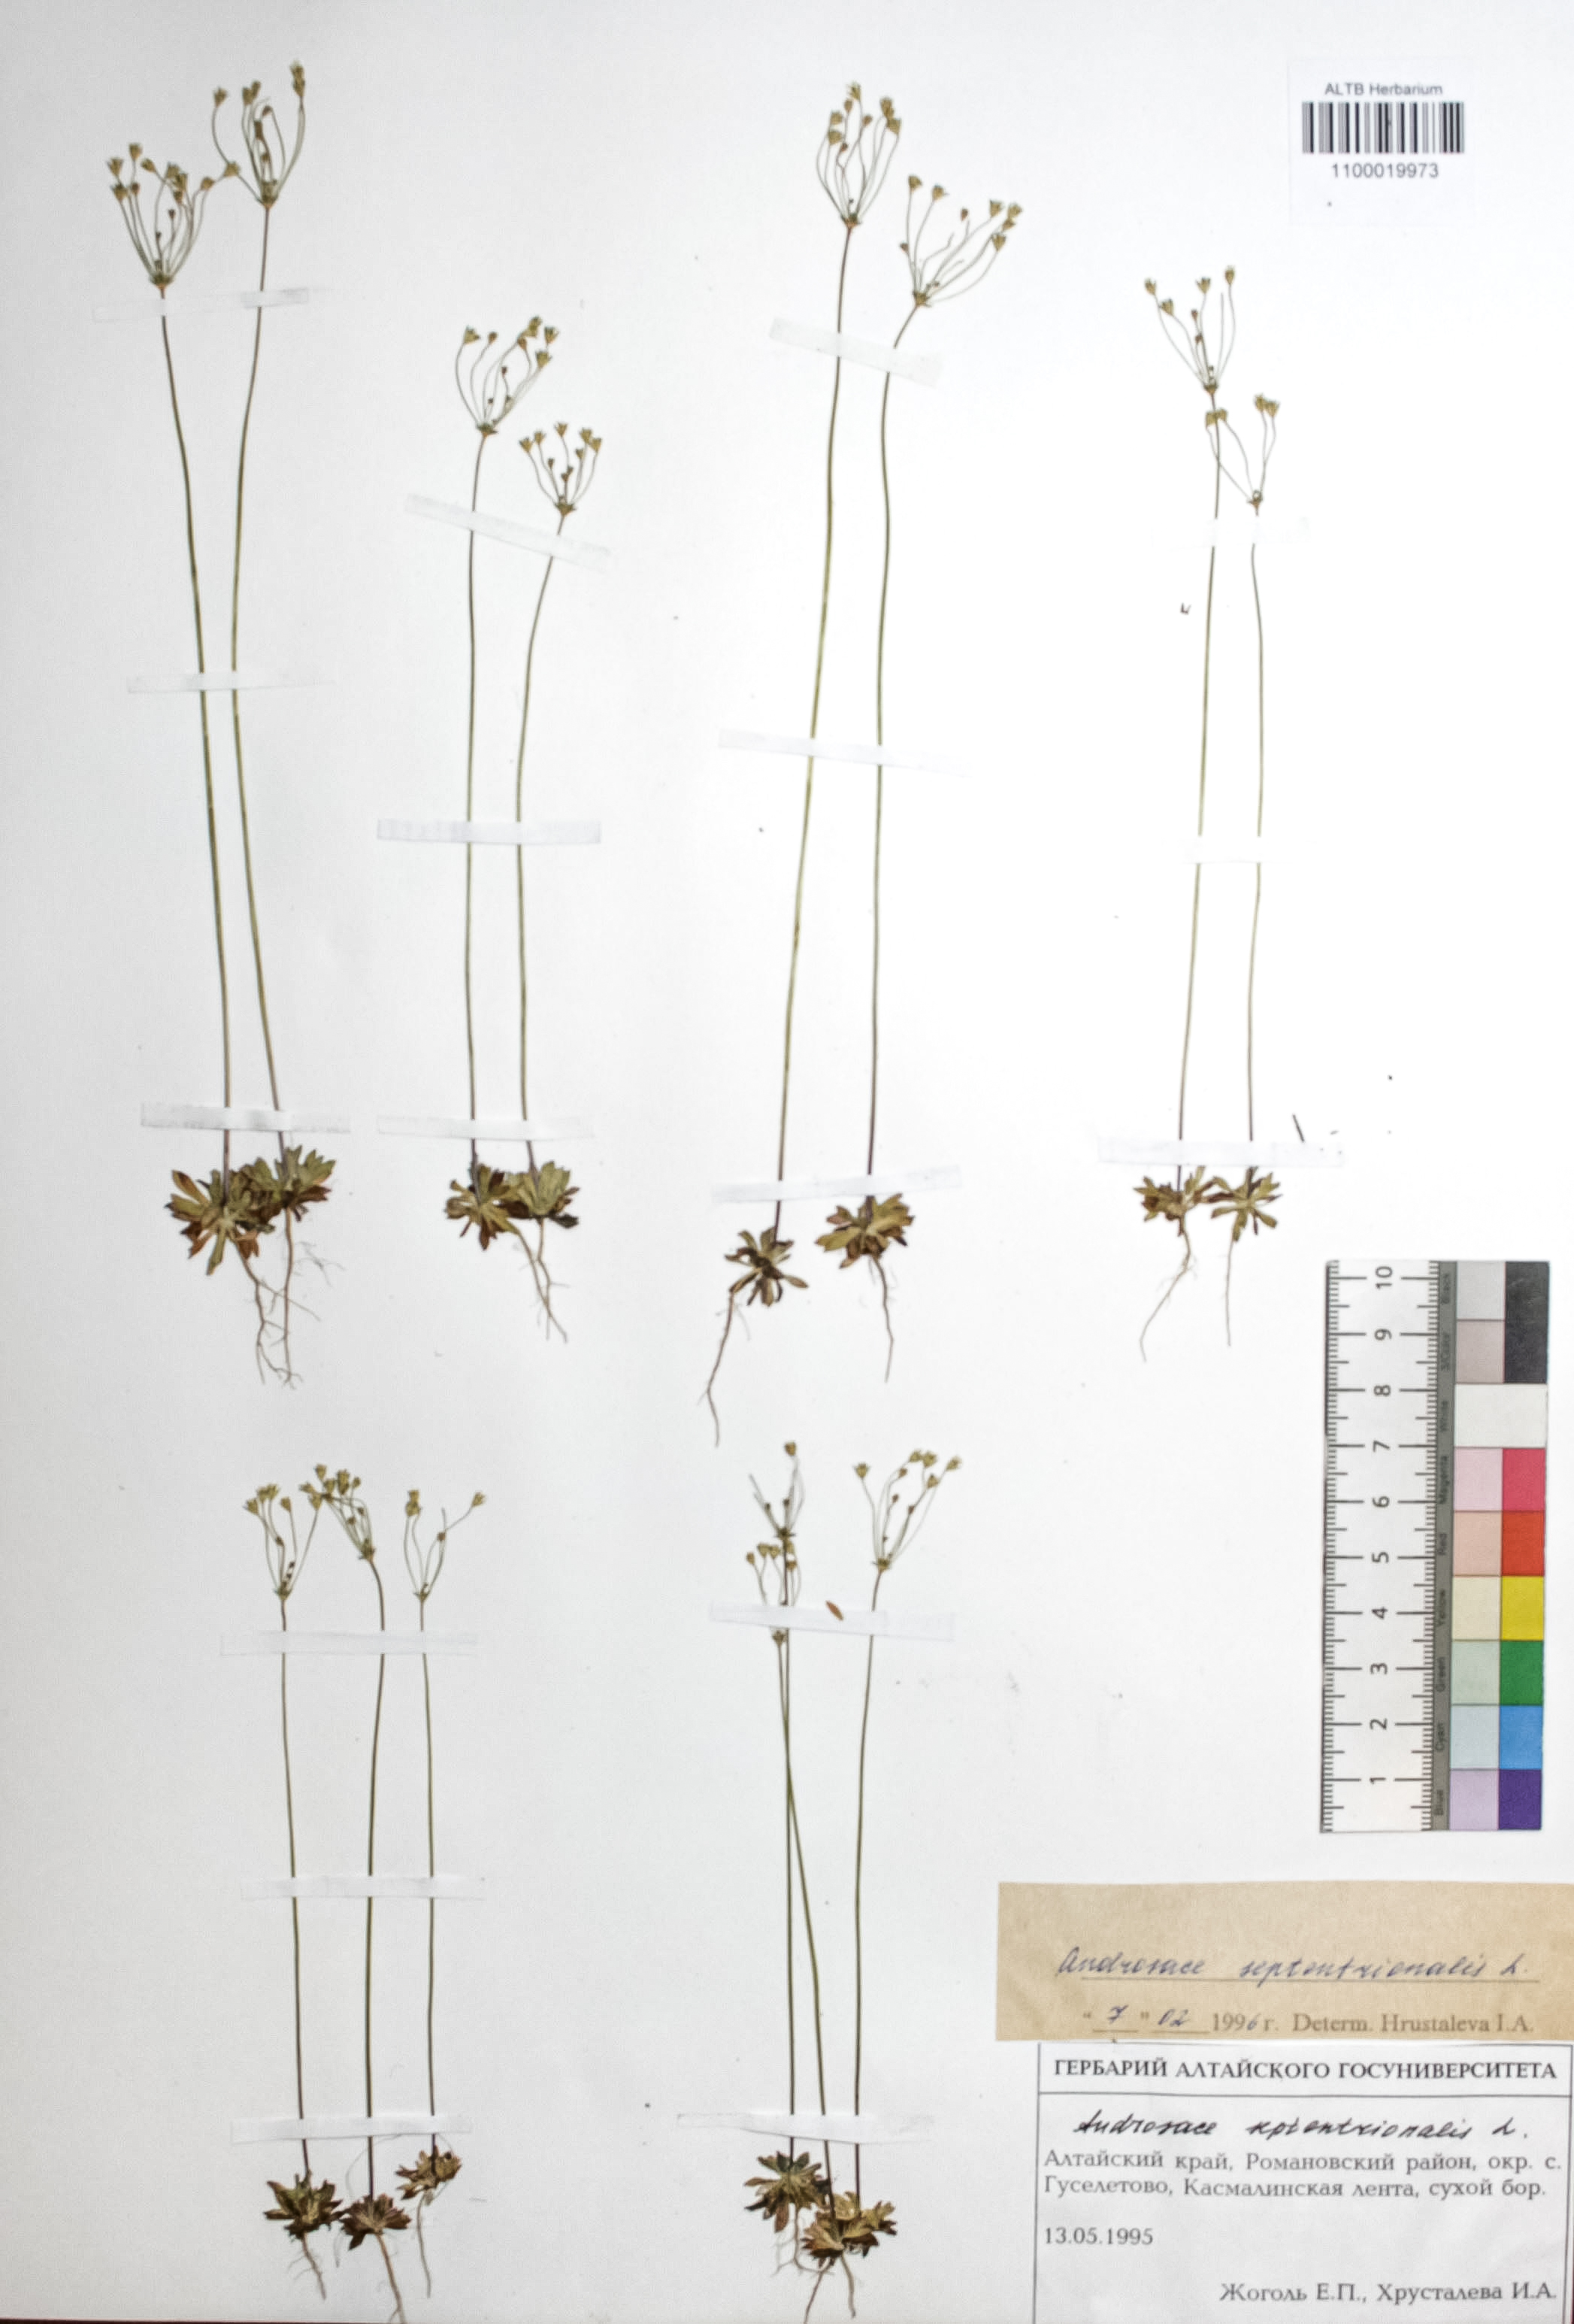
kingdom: Plantae
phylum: Tracheophyta
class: Magnoliopsida
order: Ericales
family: Primulaceae
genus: Androsace
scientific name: Androsace septentrionalis
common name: Hairy northern fairy-candelabra
